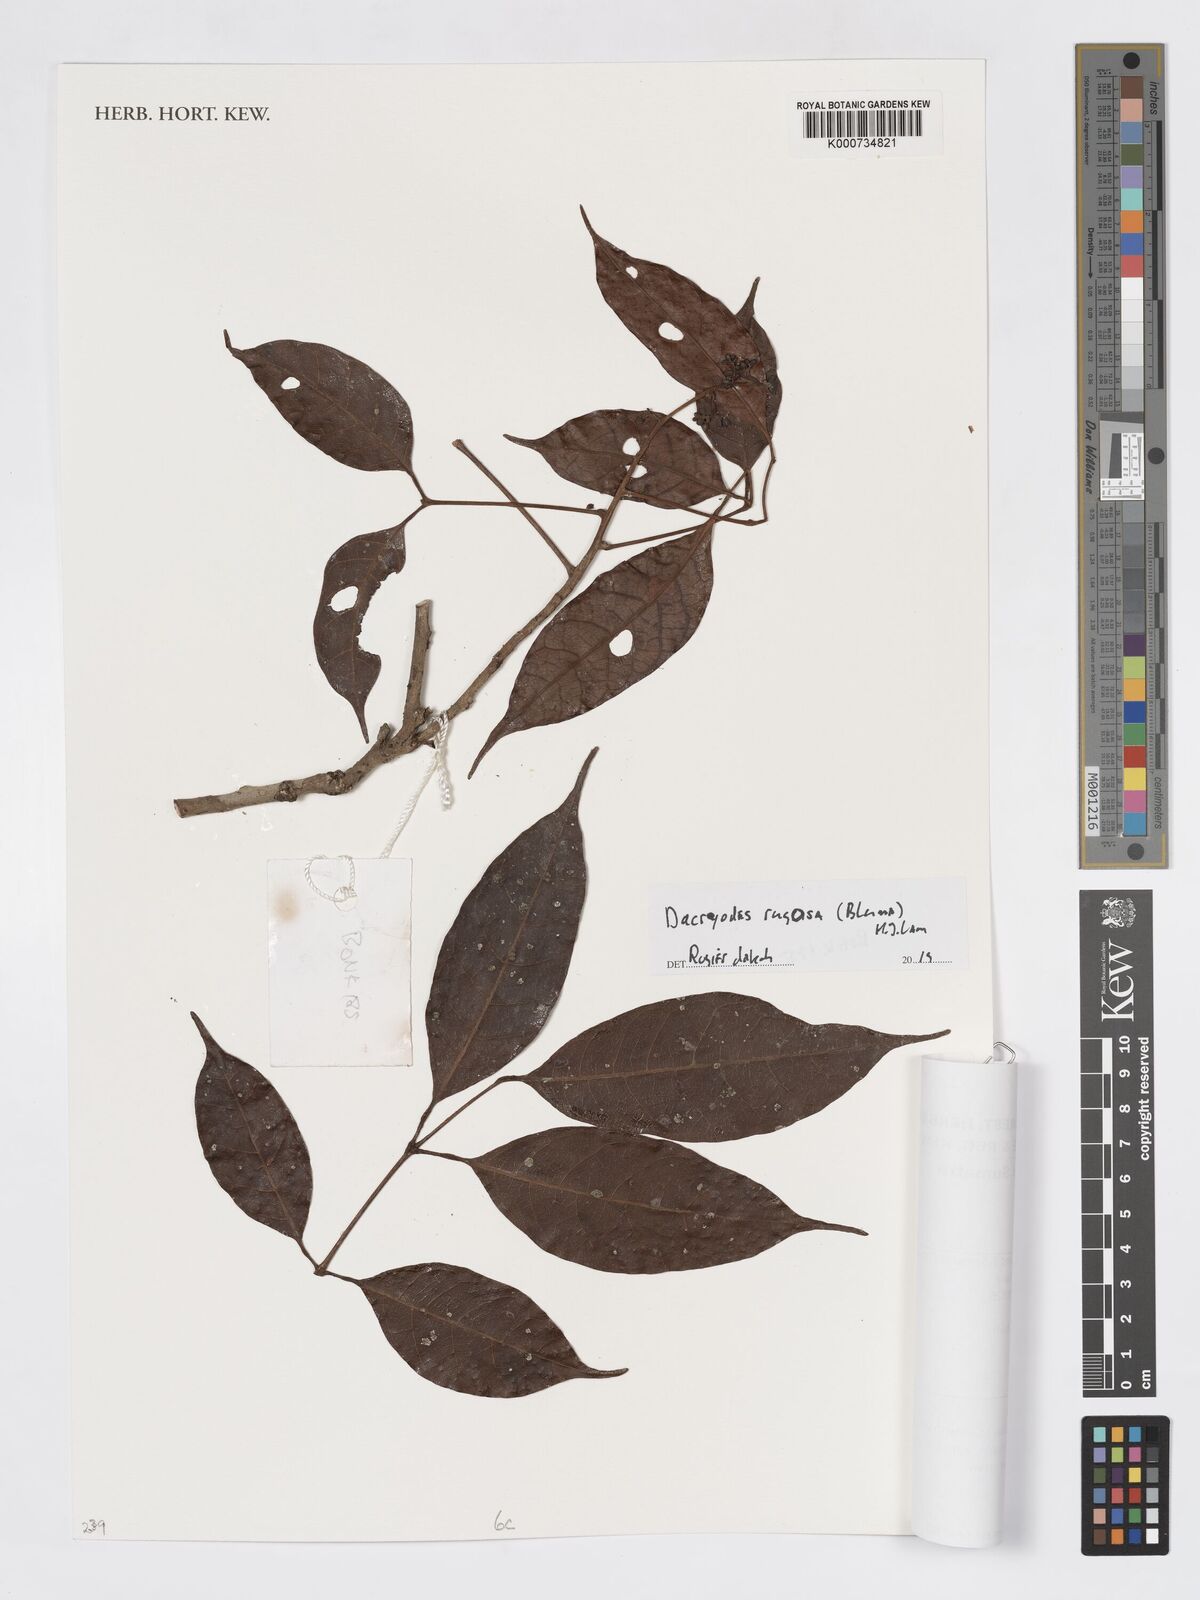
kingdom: Plantae
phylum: Tracheophyta
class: Magnoliopsida
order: Sapindales
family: Burseraceae
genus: Dacryodes
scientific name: Dacryodes rugosa
